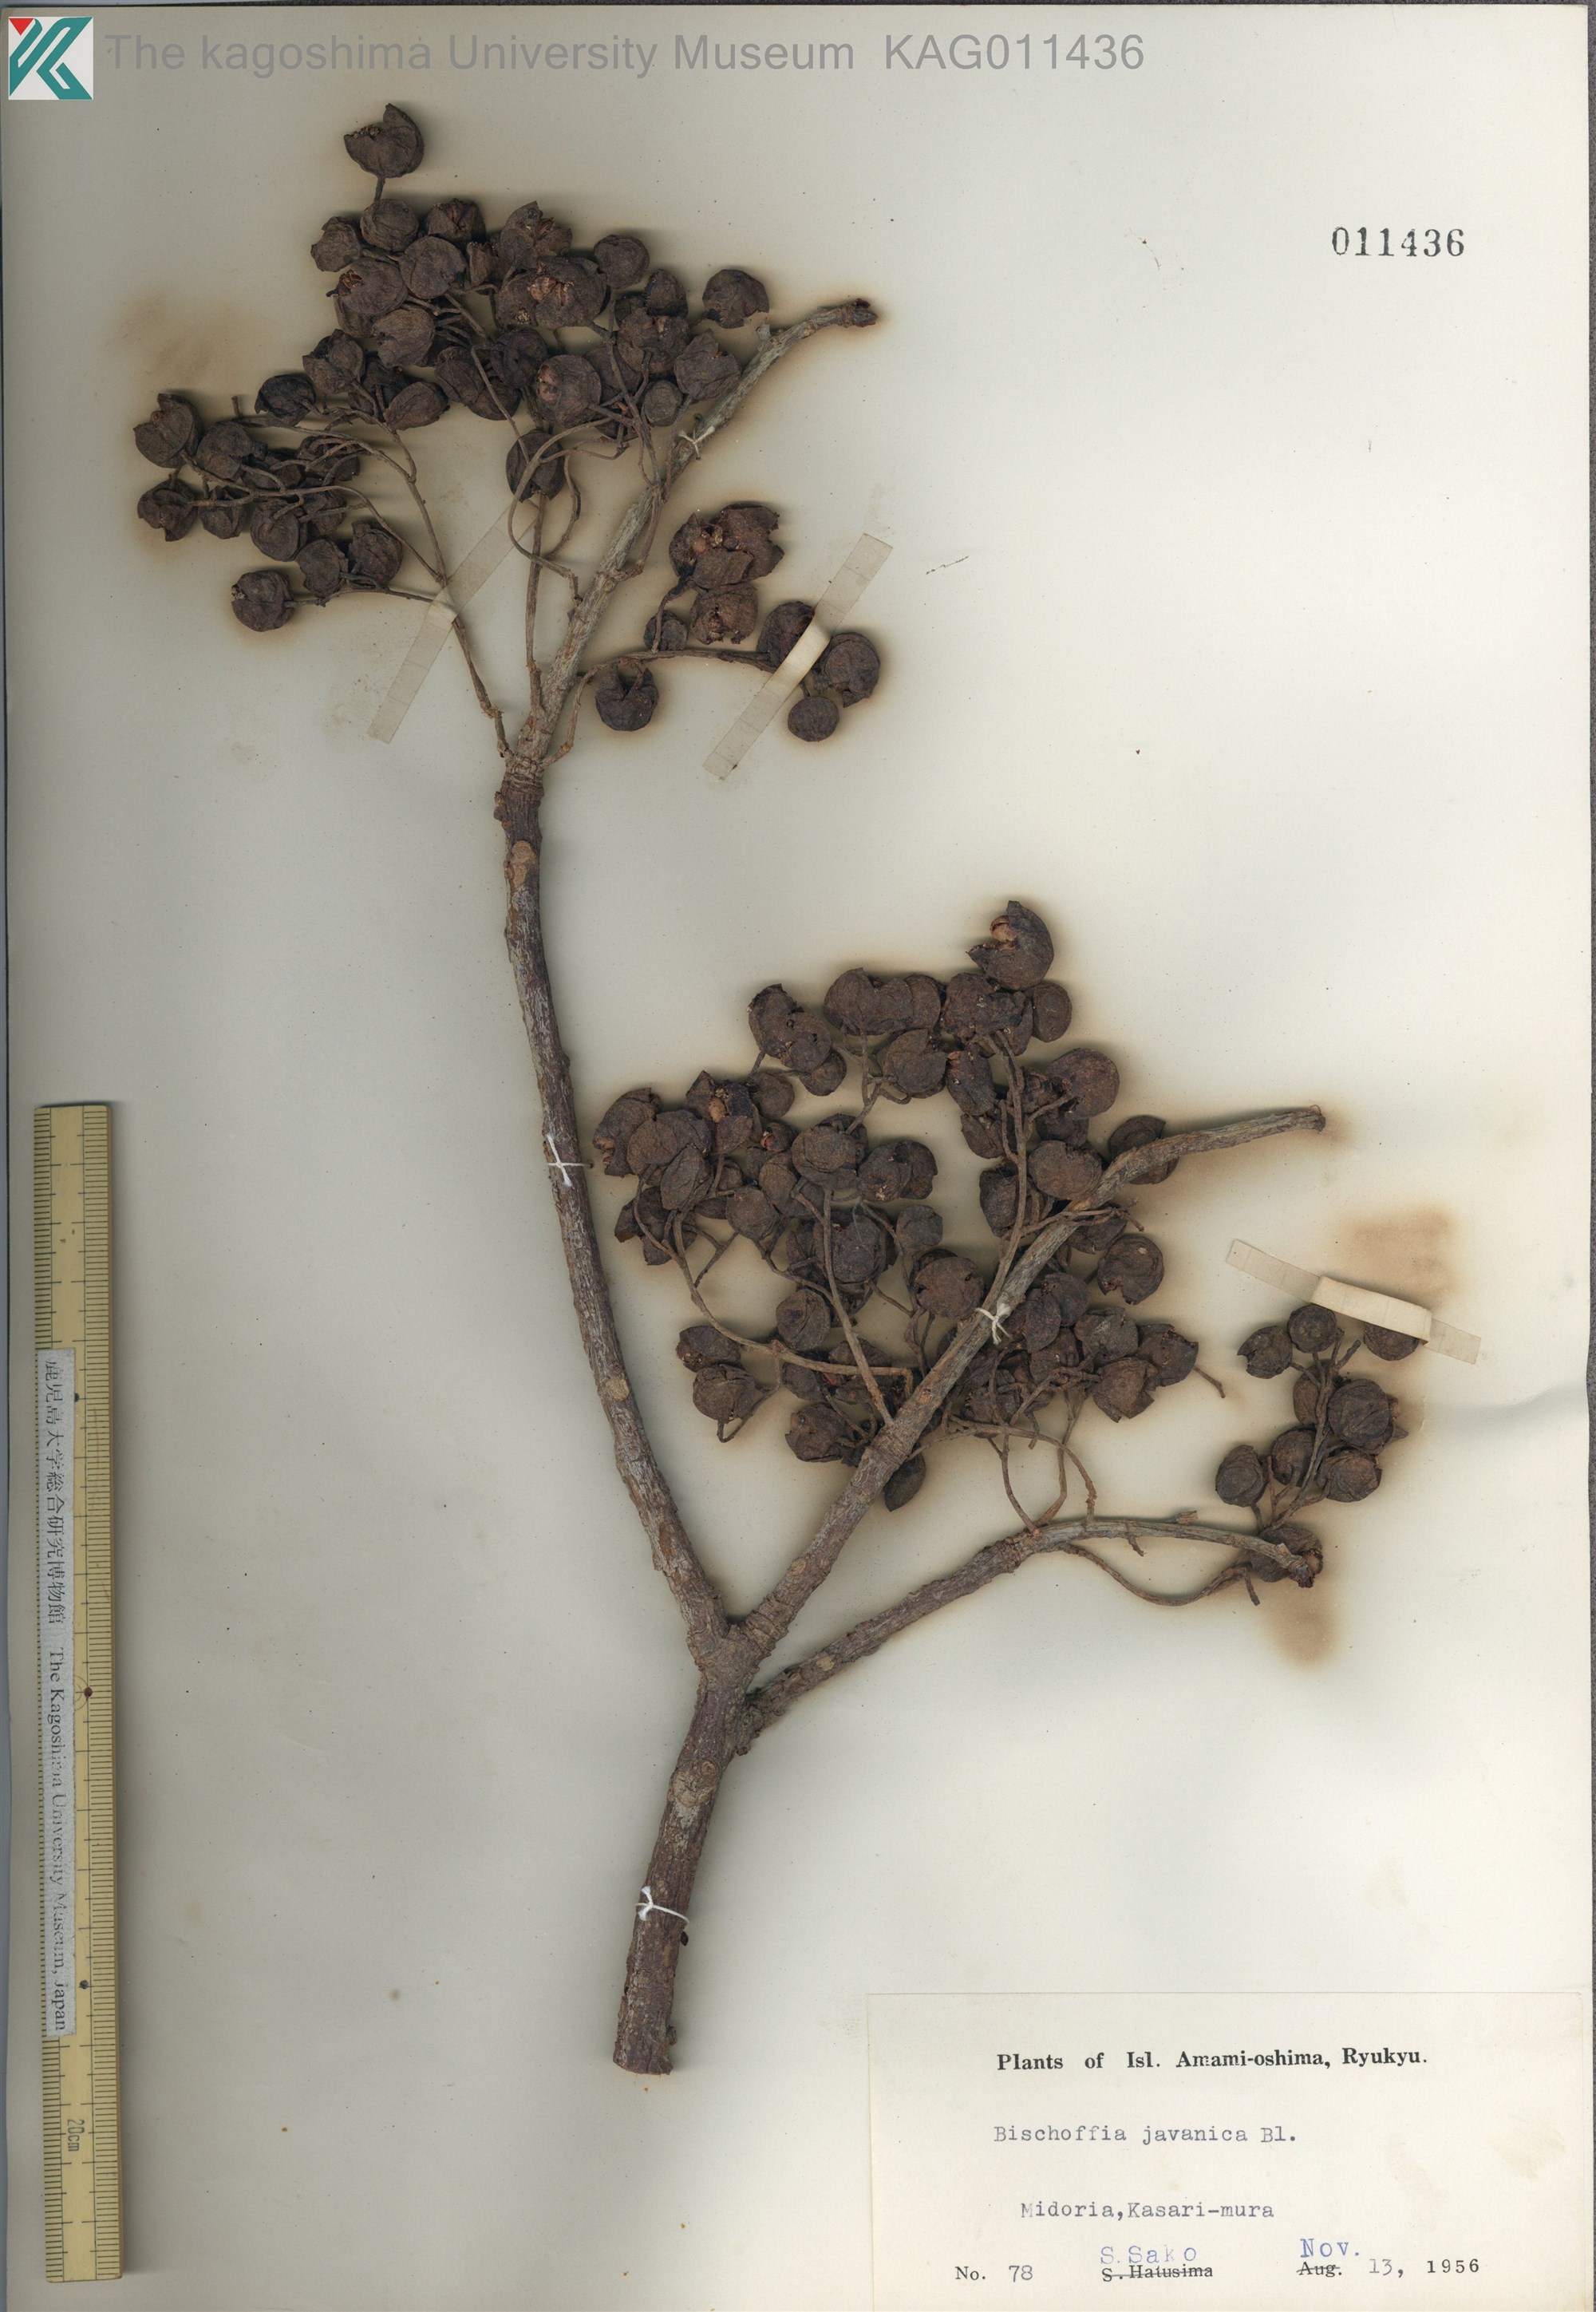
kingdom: Plantae
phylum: Tracheophyta
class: Magnoliopsida
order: Malpighiales
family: Phyllanthaceae
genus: Bischofia
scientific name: Bischofia javanica
